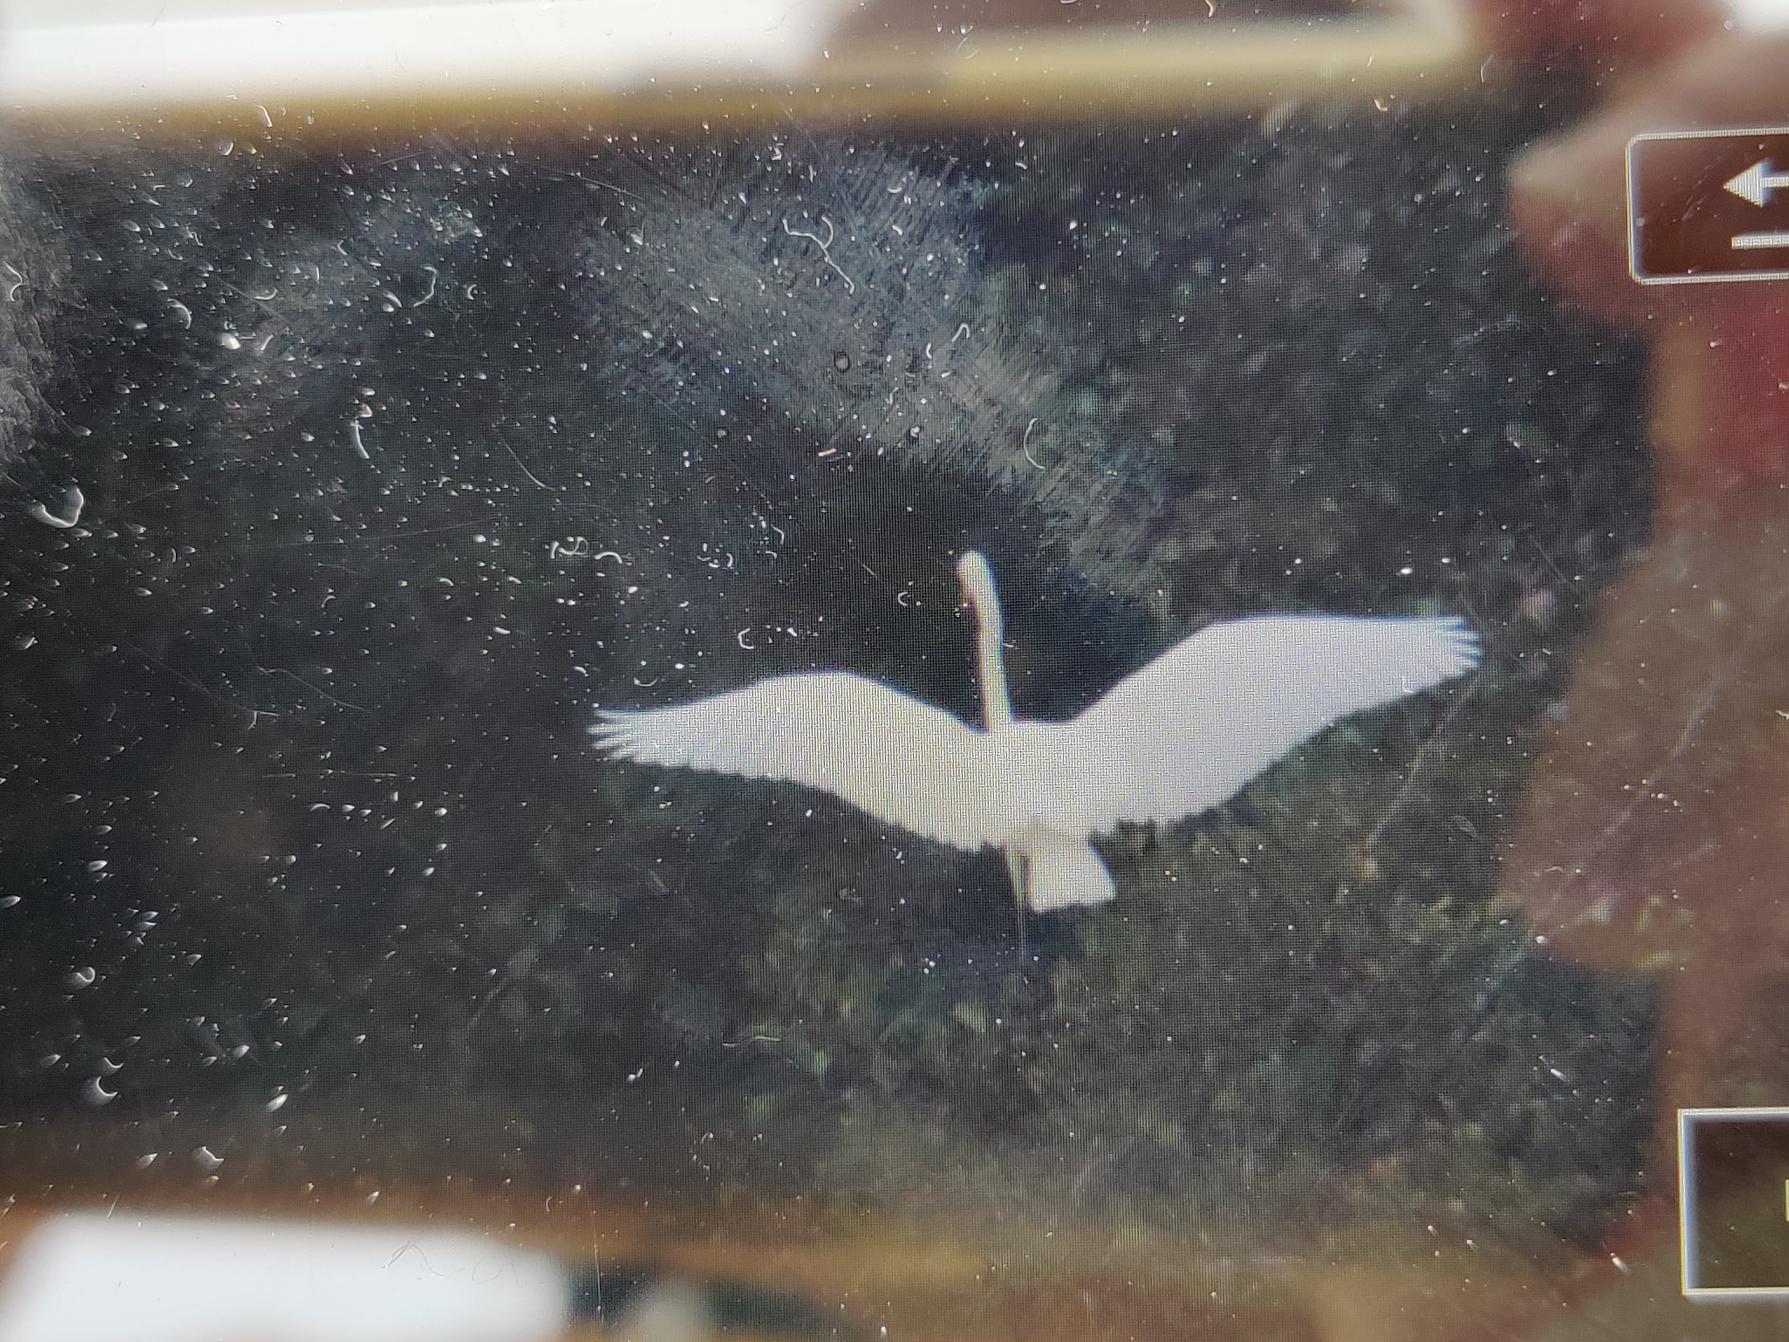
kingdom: Animalia
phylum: Chordata
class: Aves
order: Pelecaniformes
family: Ardeidae
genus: Ardea
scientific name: Ardea alba
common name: Sølvhejre
